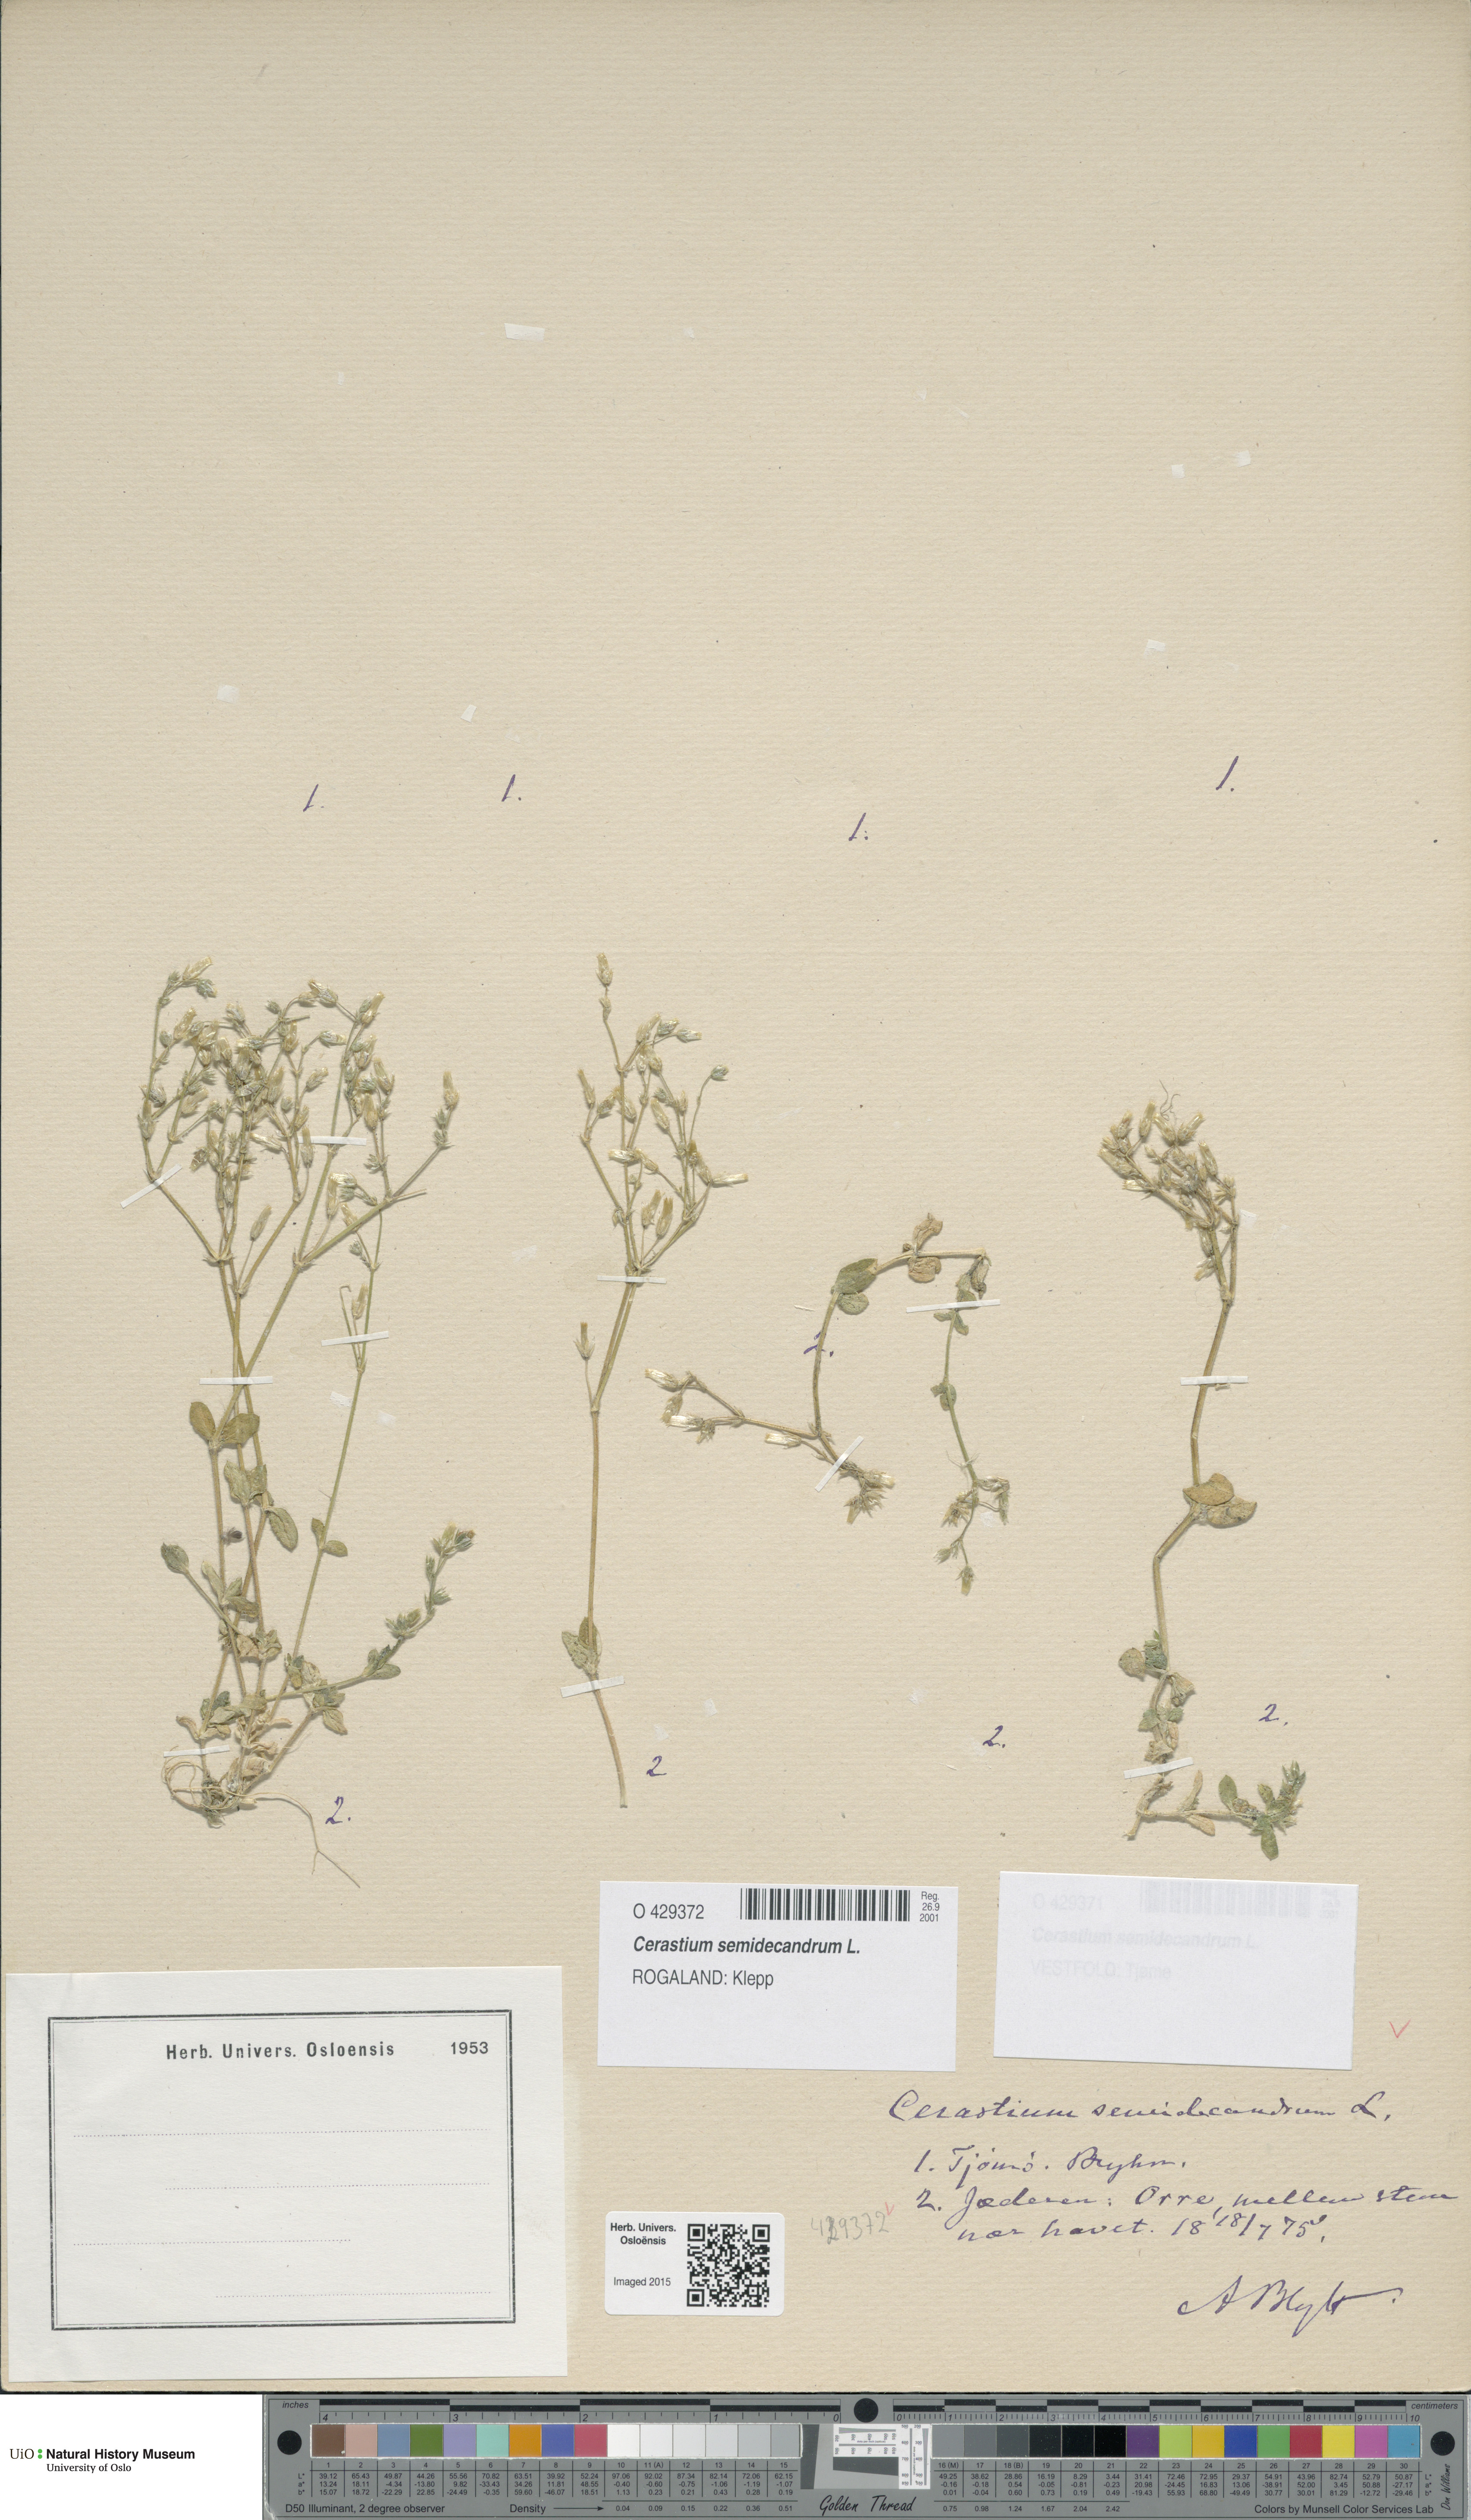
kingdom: Plantae
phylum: Tracheophyta
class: Magnoliopsida
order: Caryophyllales
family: Caryophyllaceae
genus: Cerastium
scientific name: Cerastium semidecandrum
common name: Little mouse-ear
